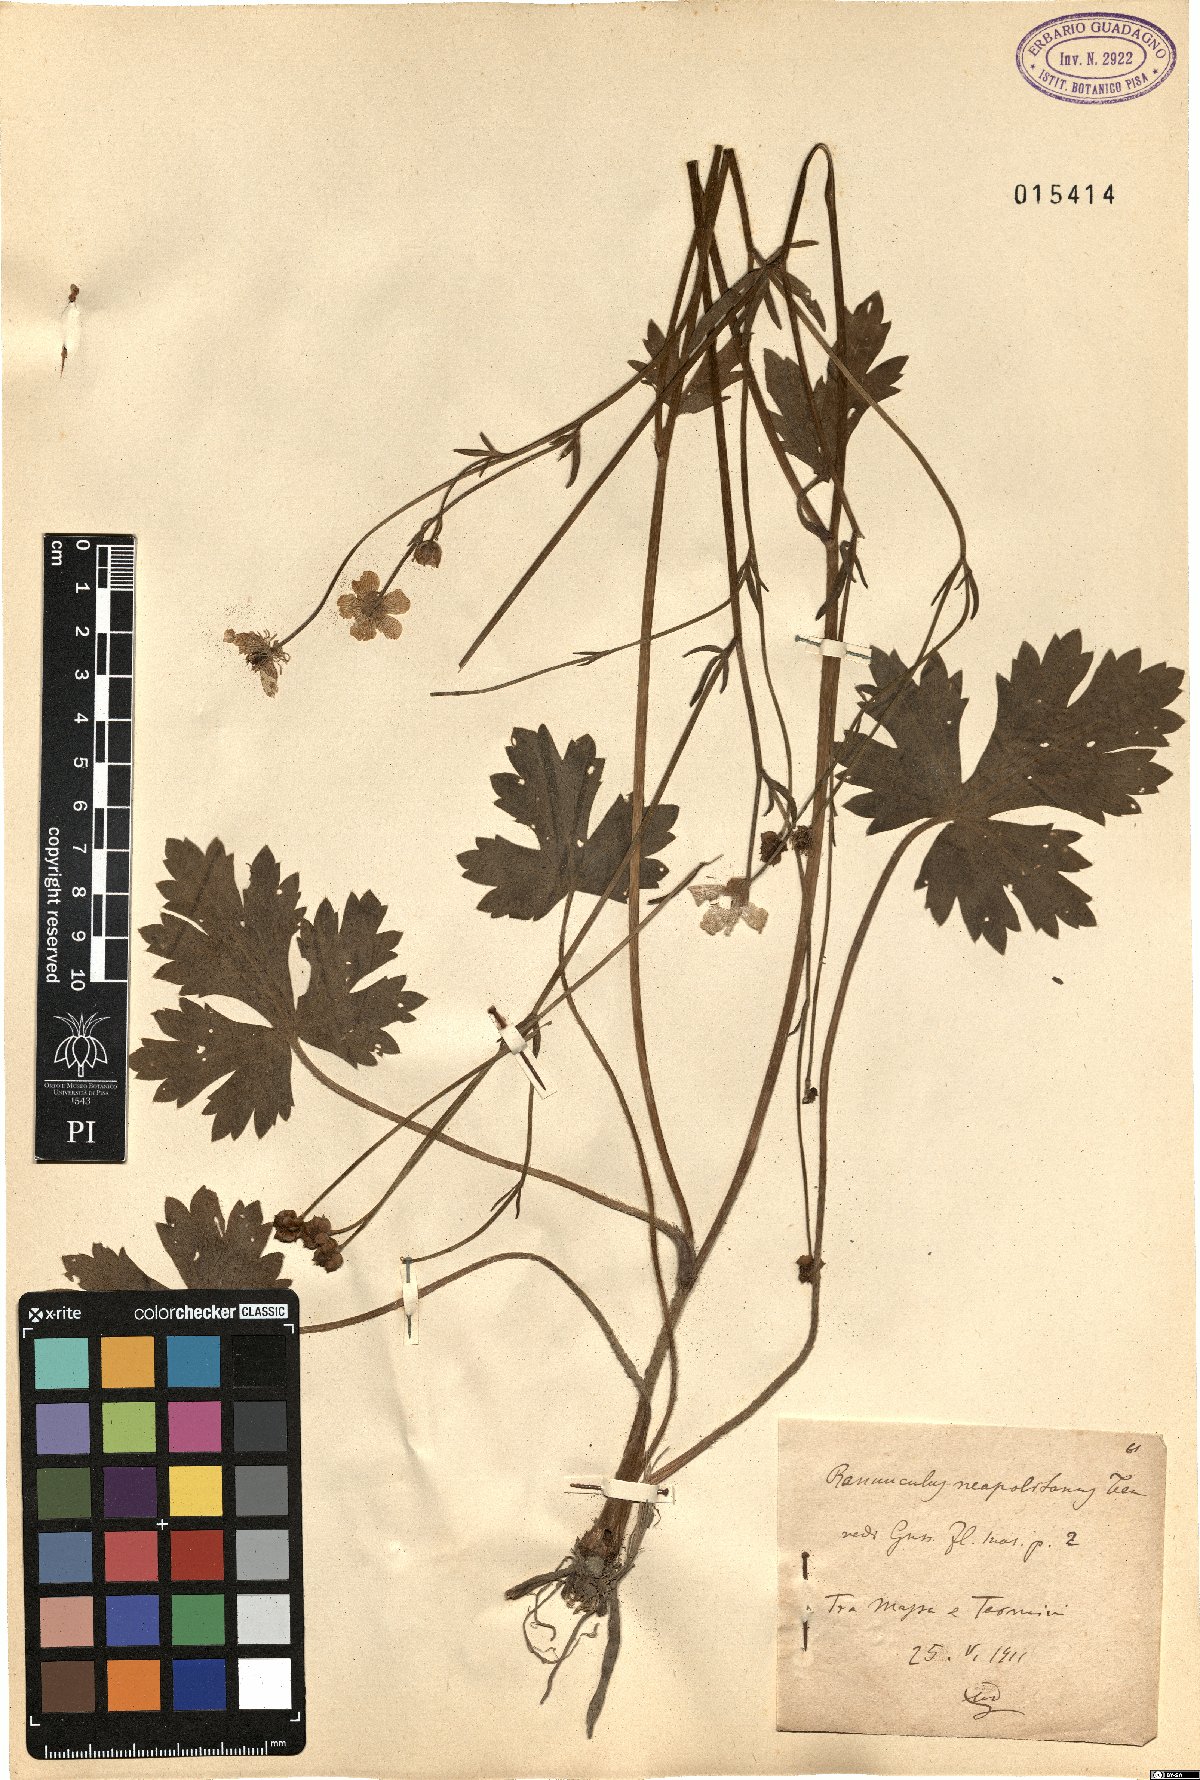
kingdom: Plantae
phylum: Tracheophyta
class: Magnoliopsida
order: Ranunculales
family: Ranunculaceae
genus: Ranunculus
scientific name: Ranunculus neapolitanus
